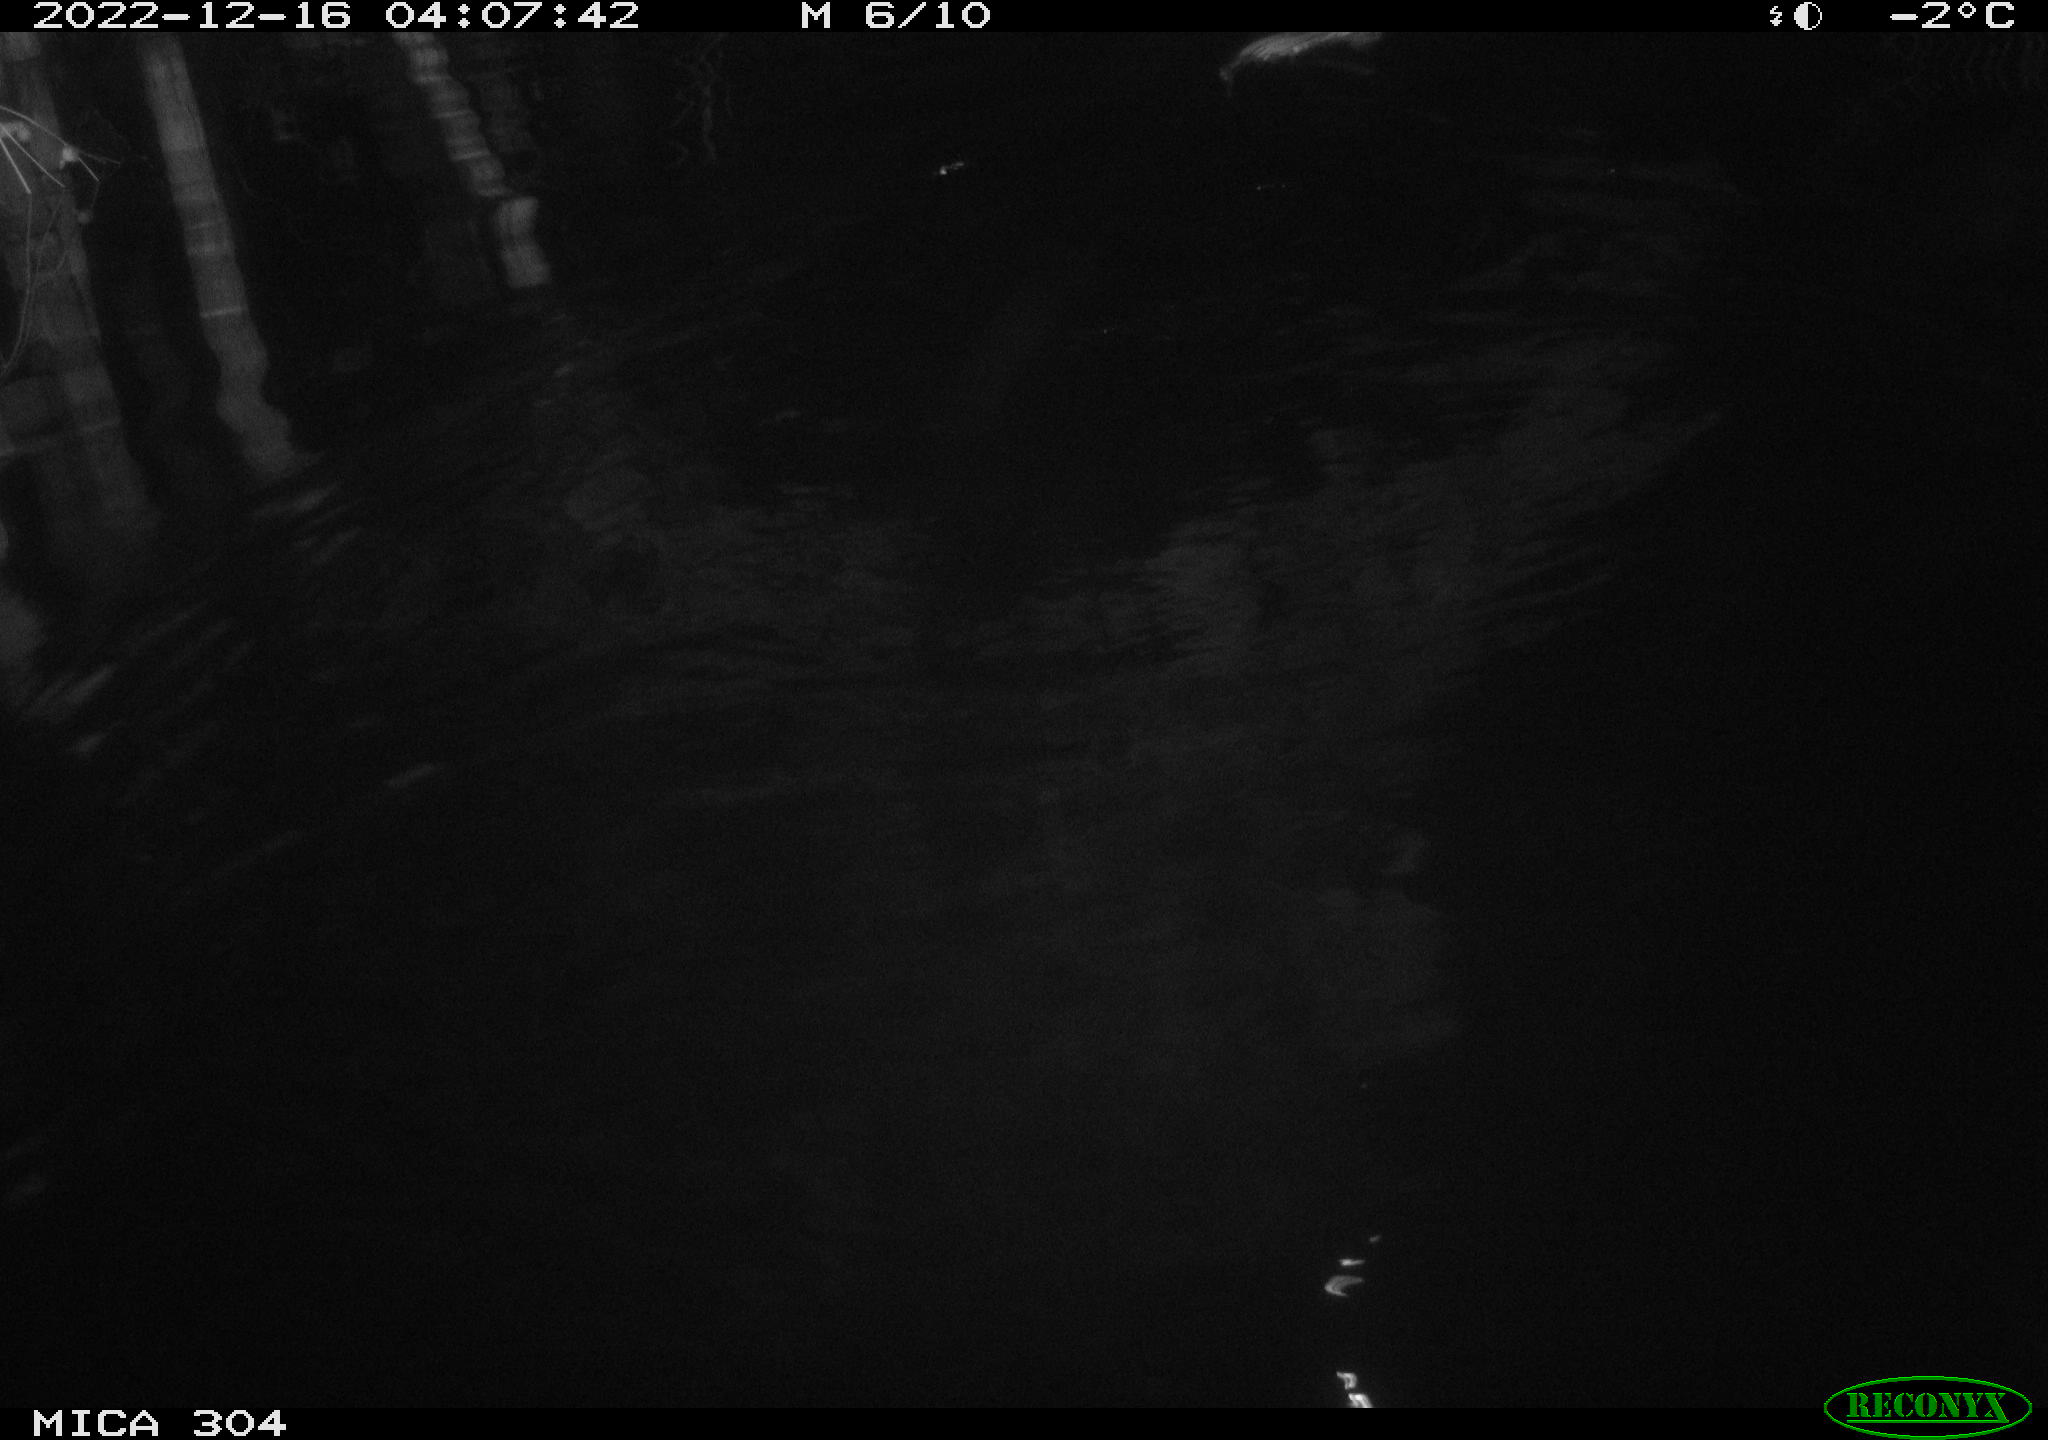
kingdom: Animalia
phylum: Chordata
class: Mammalia
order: Rodentia
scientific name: Rodentia
